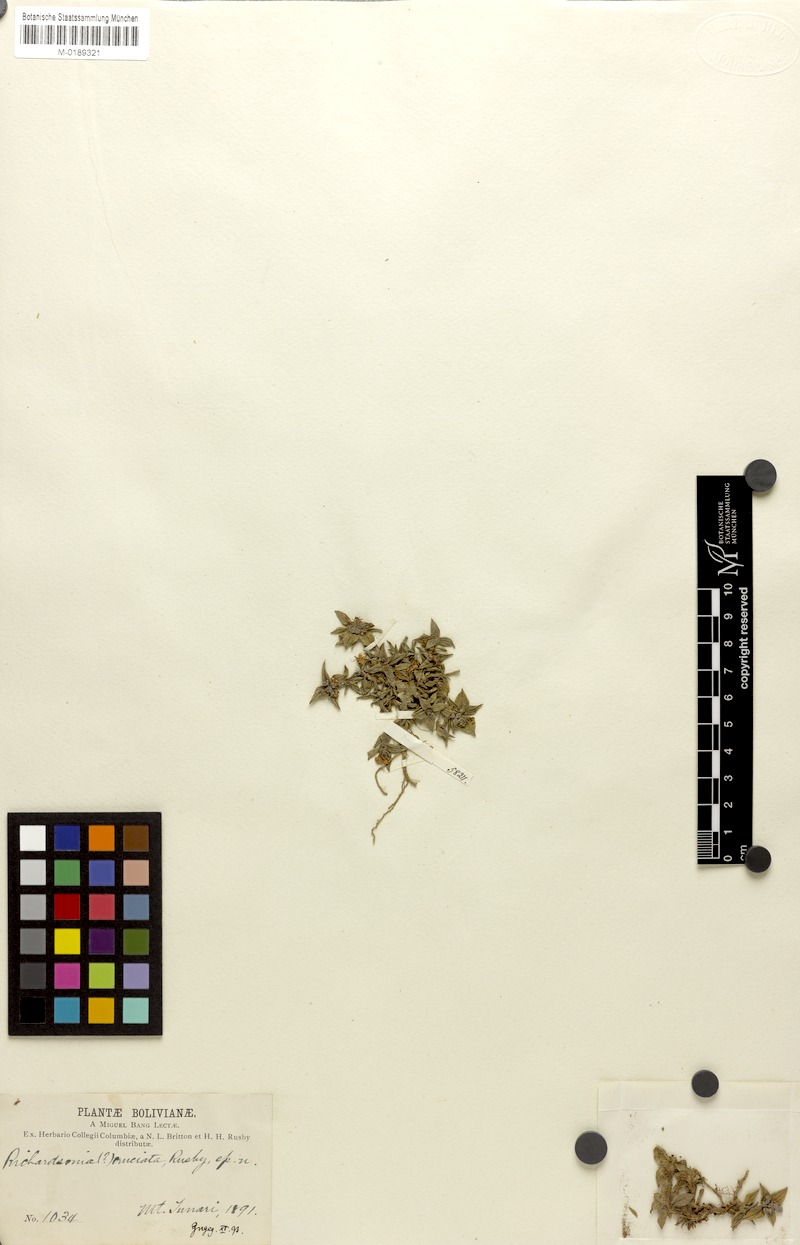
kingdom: Plantae
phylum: Tracheophyta
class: Magnoliopsida
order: Gentianales
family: Rubiaceae
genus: Richardia
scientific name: Richardia cruciata
